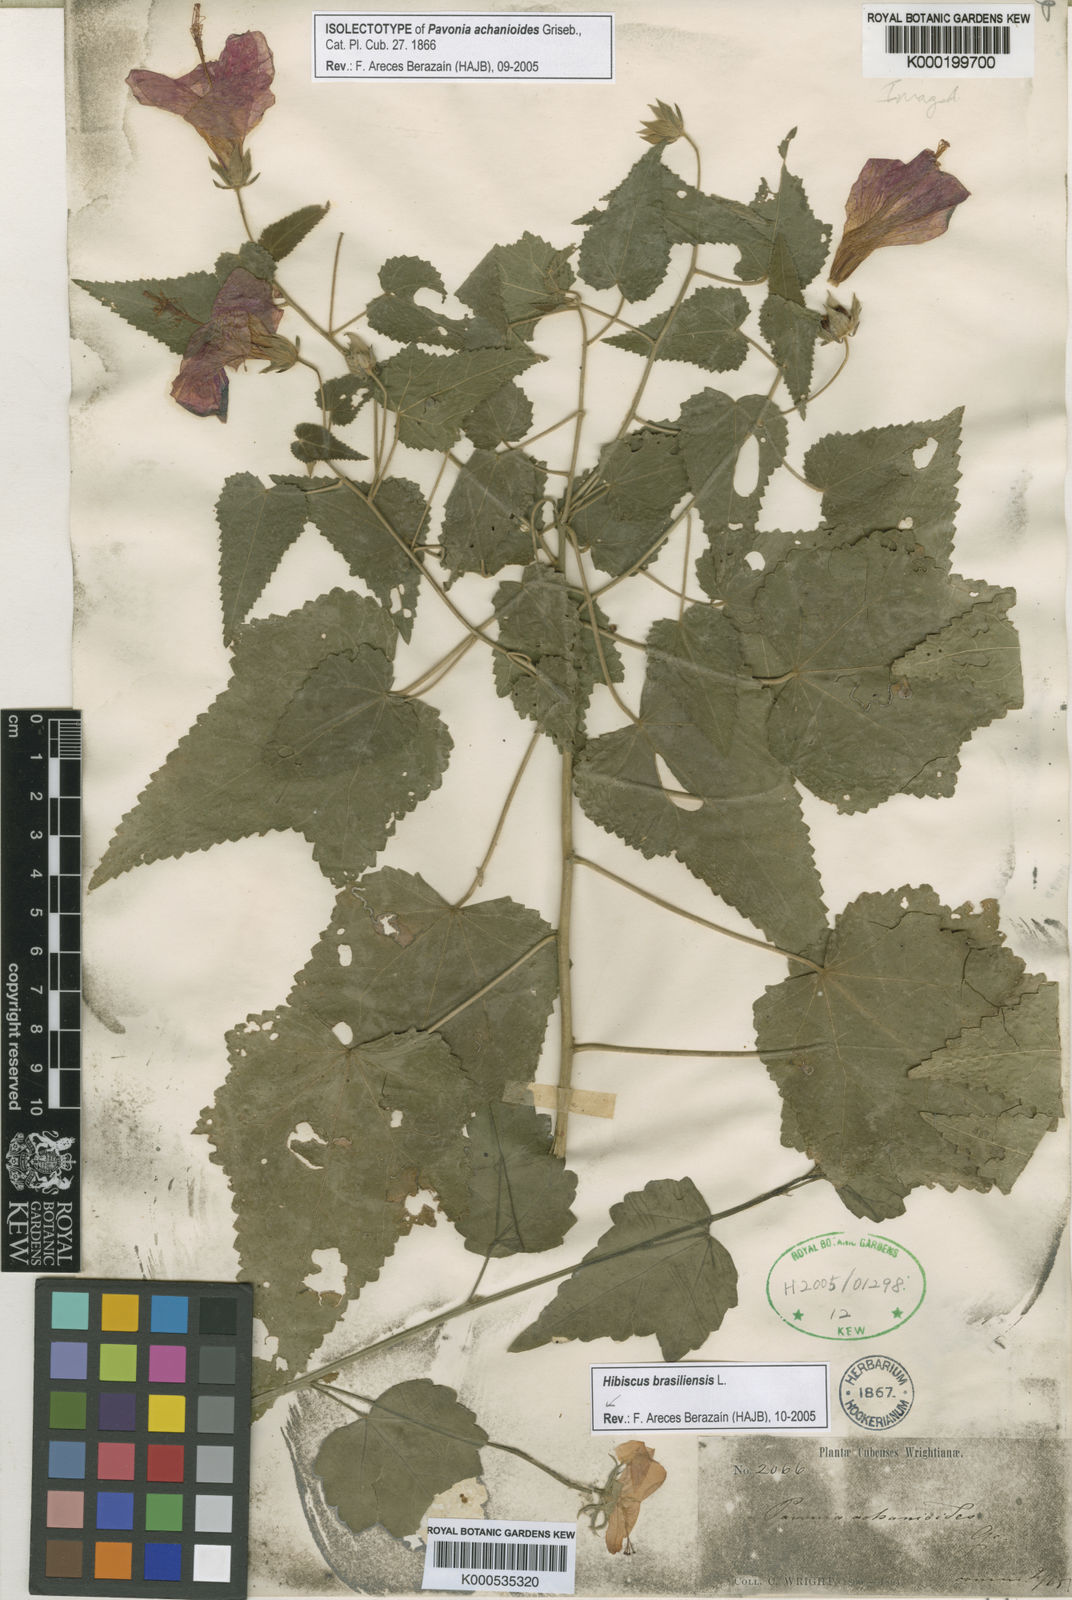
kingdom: Plantae
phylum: Tracheophyta
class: Magnoliopsida
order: Malvales
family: Malvaceae
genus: Hibiscus
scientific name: Hibiscus phoeniceus
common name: Brazilian rosemallow
